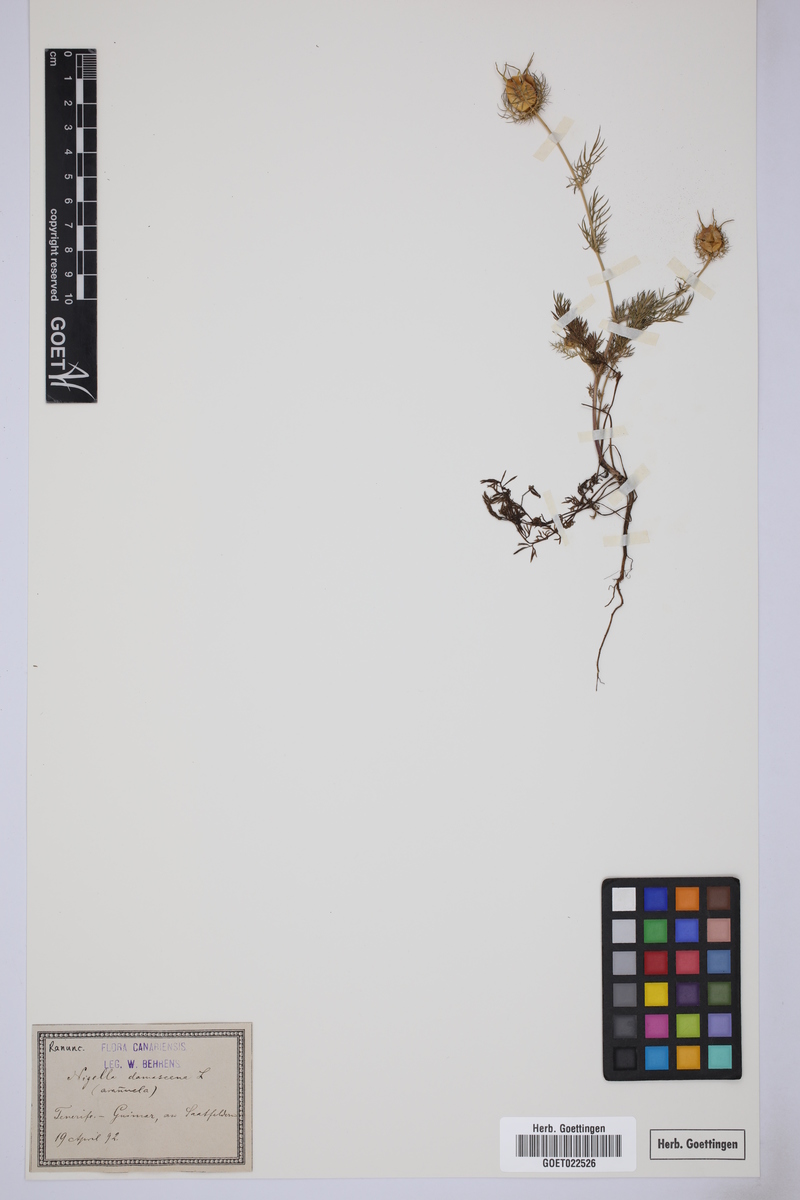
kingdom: Plantae
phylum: Tracheophyta
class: Magnoliopsida
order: Ranunculales
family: Ranunculaceae
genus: Nigella
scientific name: Nigella damascena
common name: Love-in-a-mist
